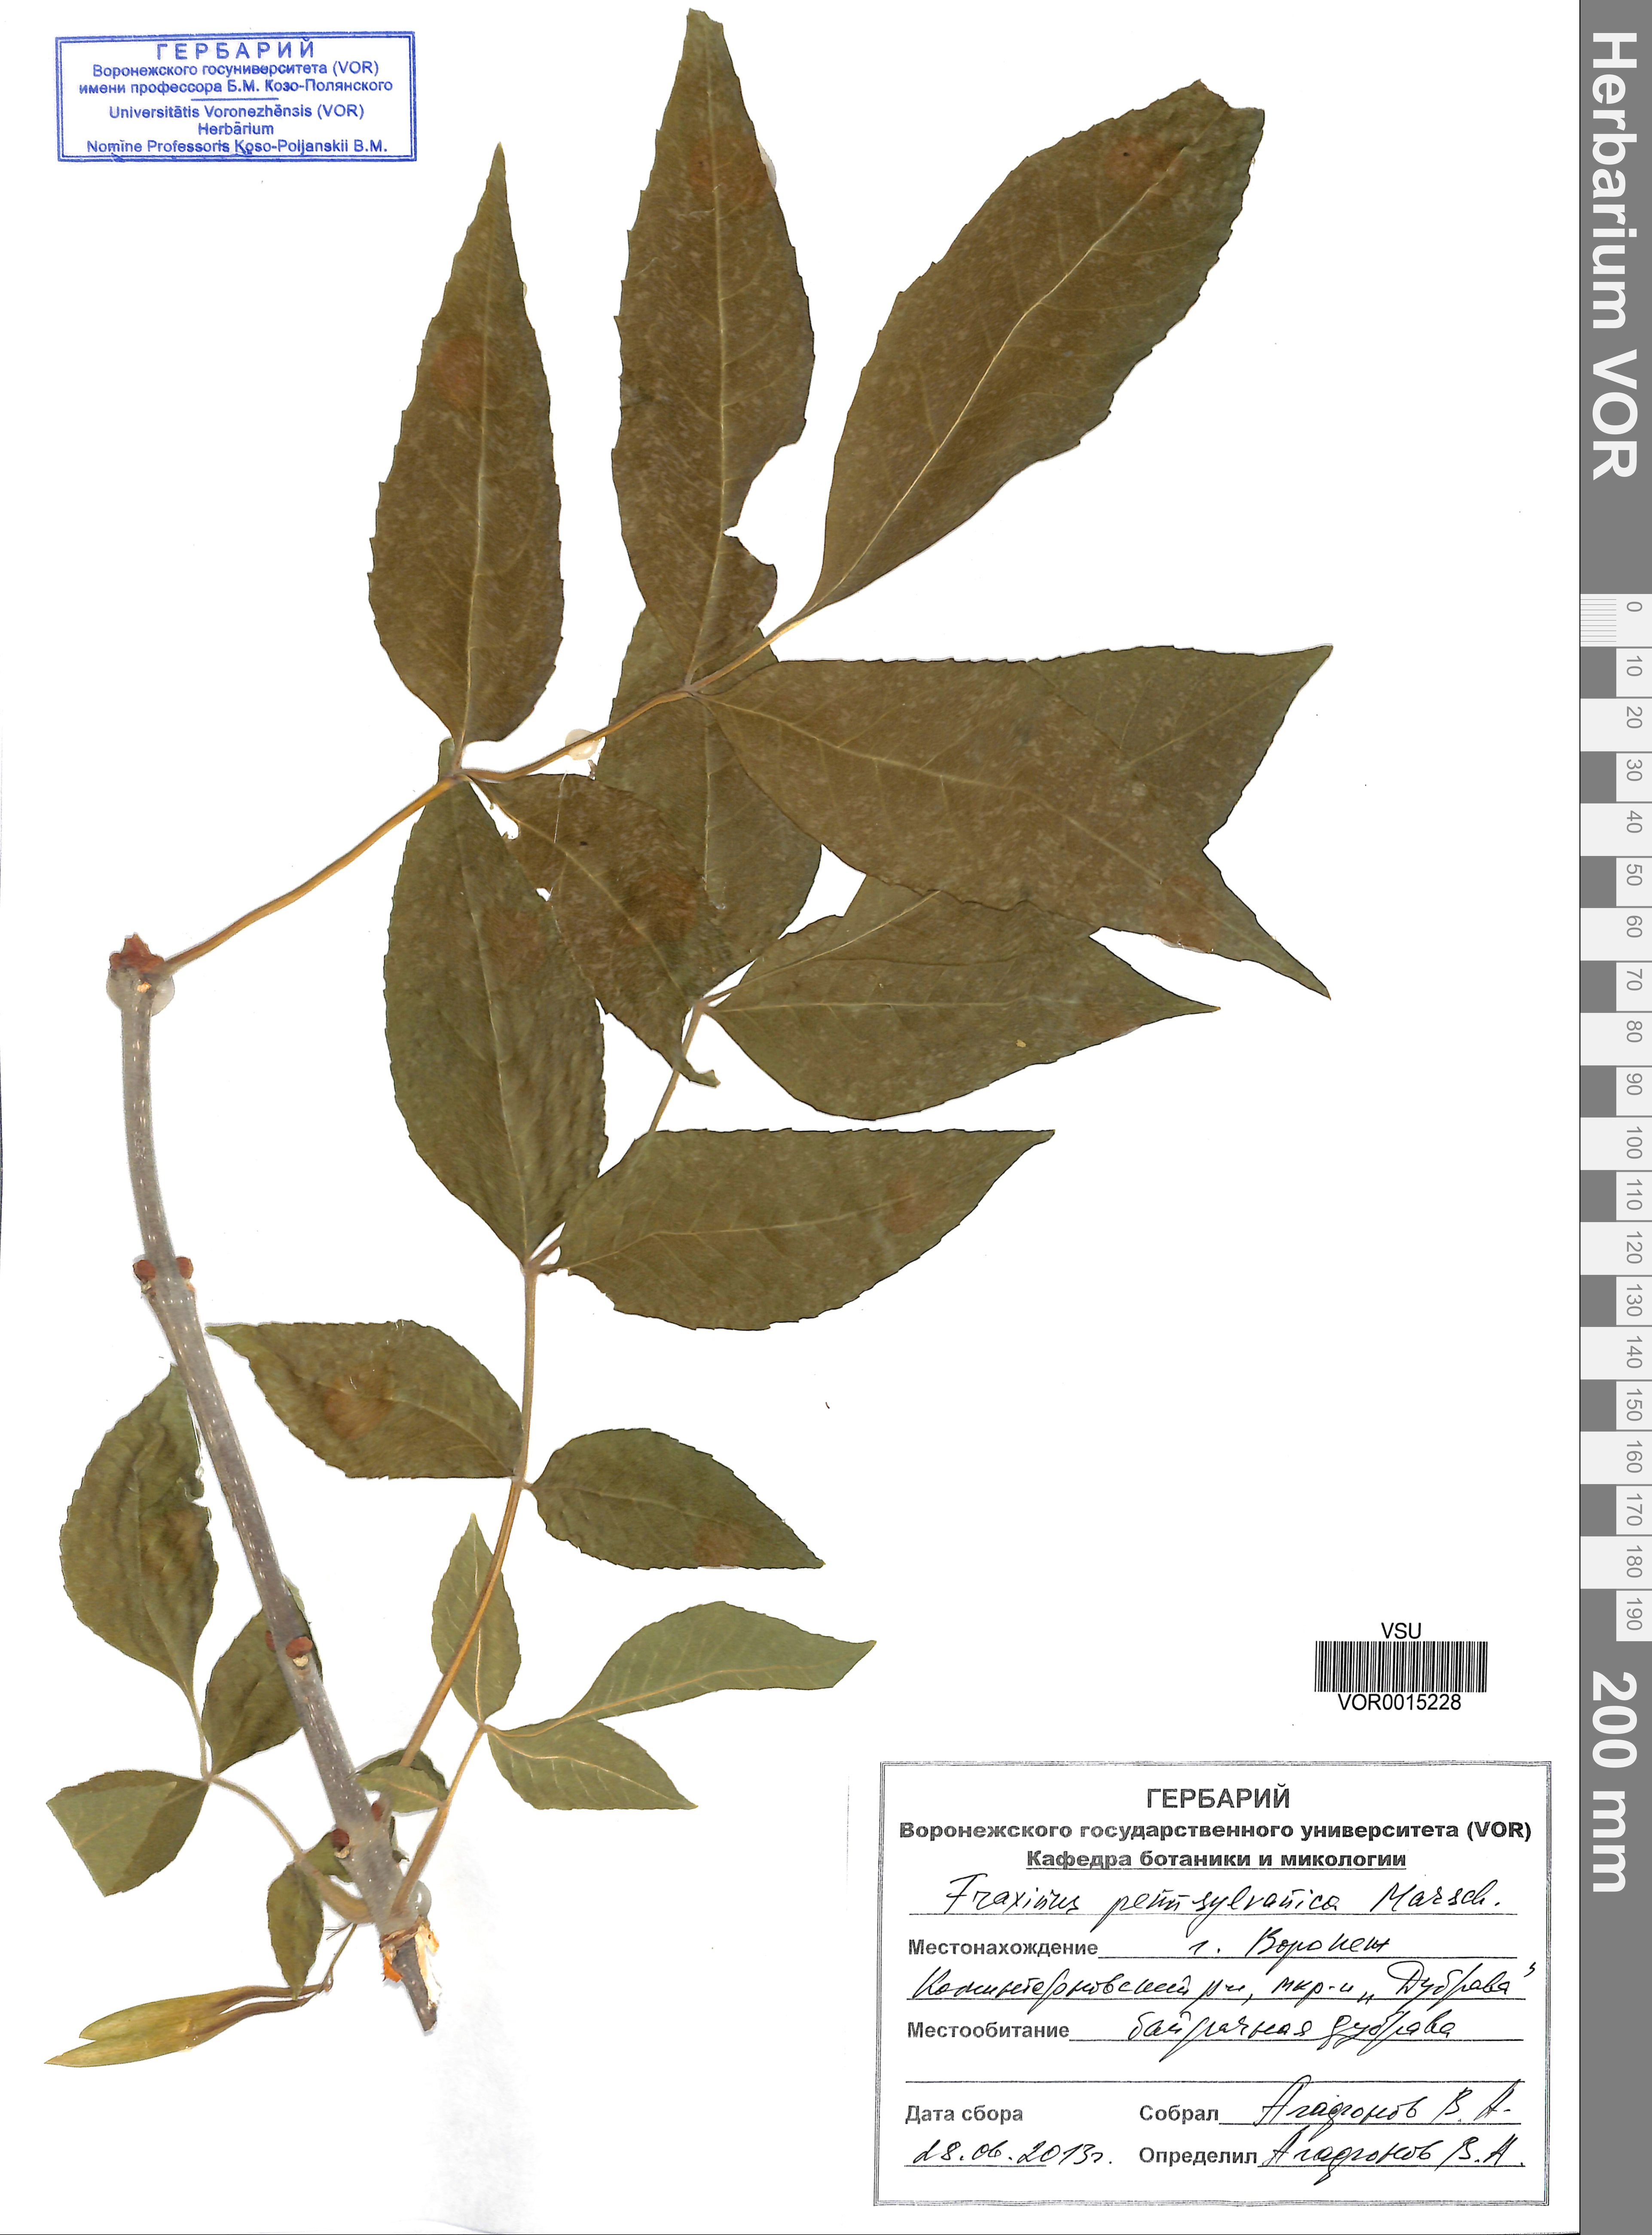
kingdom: Plantae
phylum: Tracheophyta
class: Magnoliopsida
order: Lamiales
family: Oleaceae
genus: Fraxinus
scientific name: Fraxinus pennsylvanica
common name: Green ash
